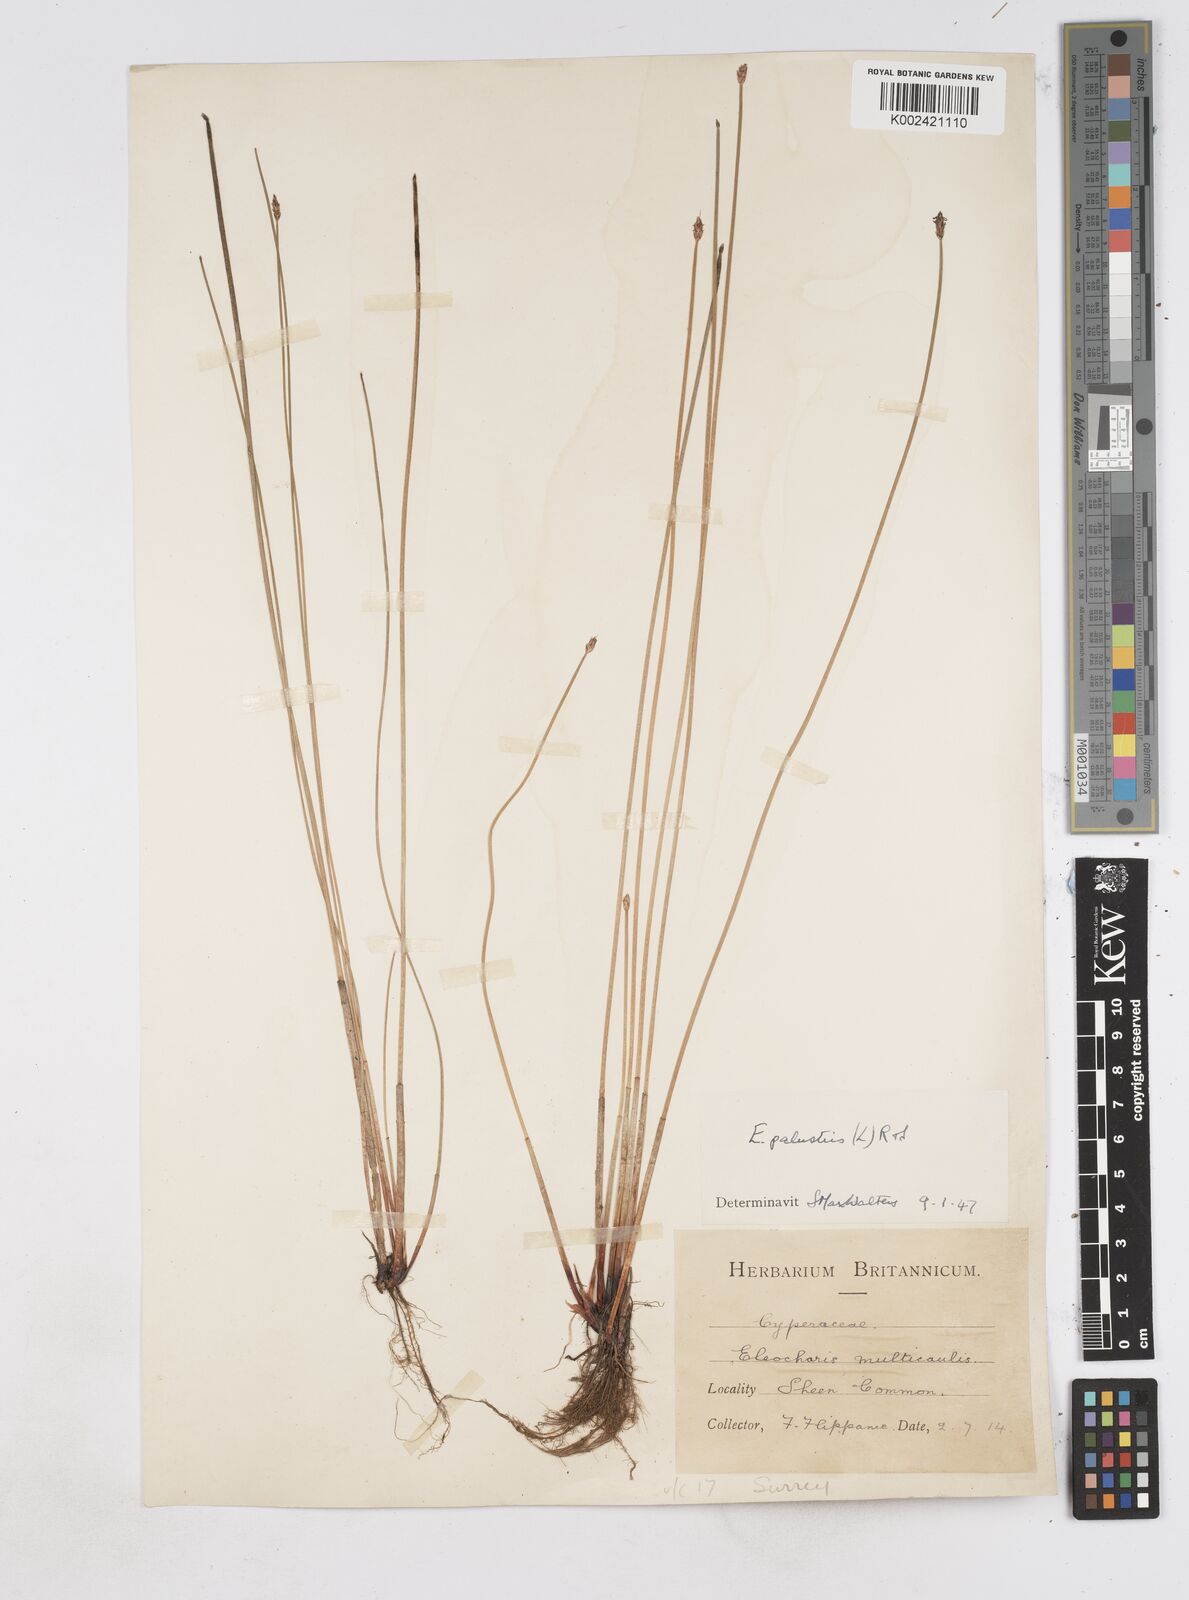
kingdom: Plantae
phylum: Tracheophyta
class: Liliopsida
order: Poales
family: Cyperaceae
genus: Eleocharis
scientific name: Eleocharis palustris
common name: Common spike-rush
